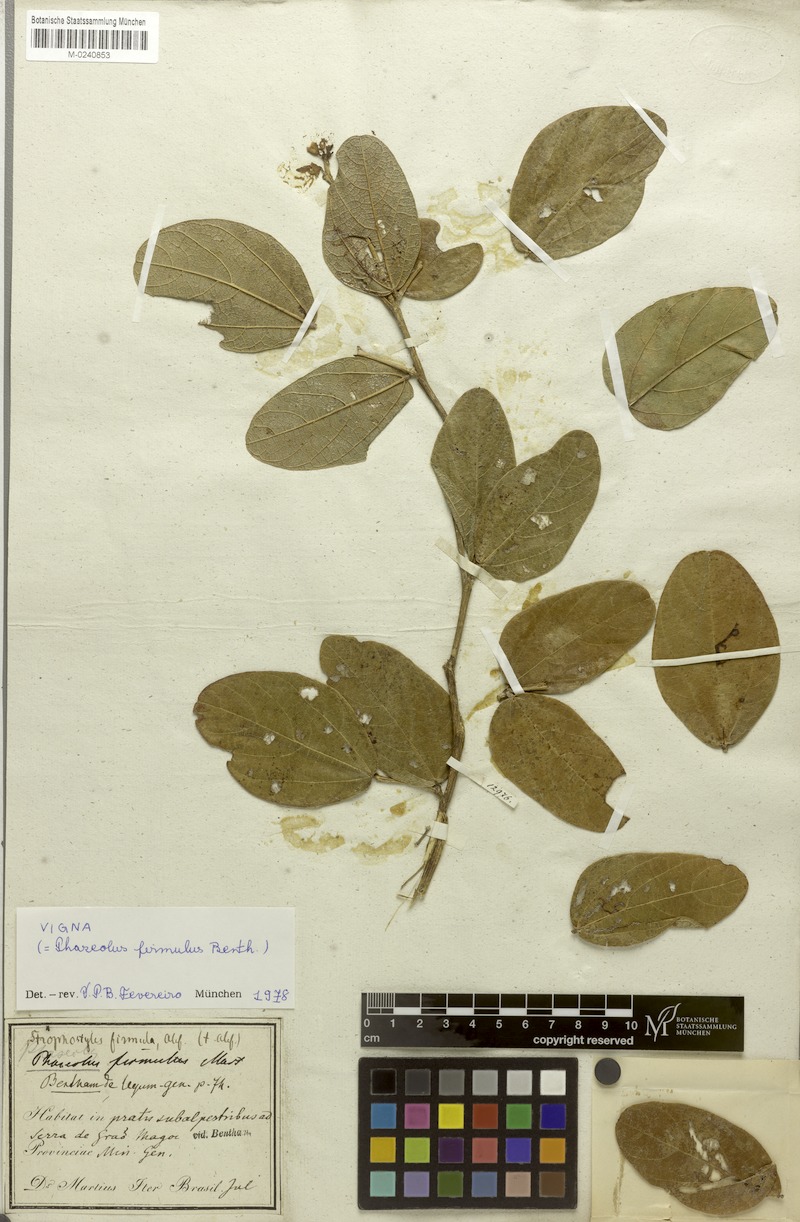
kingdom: Plantae
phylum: Tracheophyta
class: Magnoliopsida
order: Fabales
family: Fabaceae
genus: Ancistrotropis
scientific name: Ancistrotropis firmula
